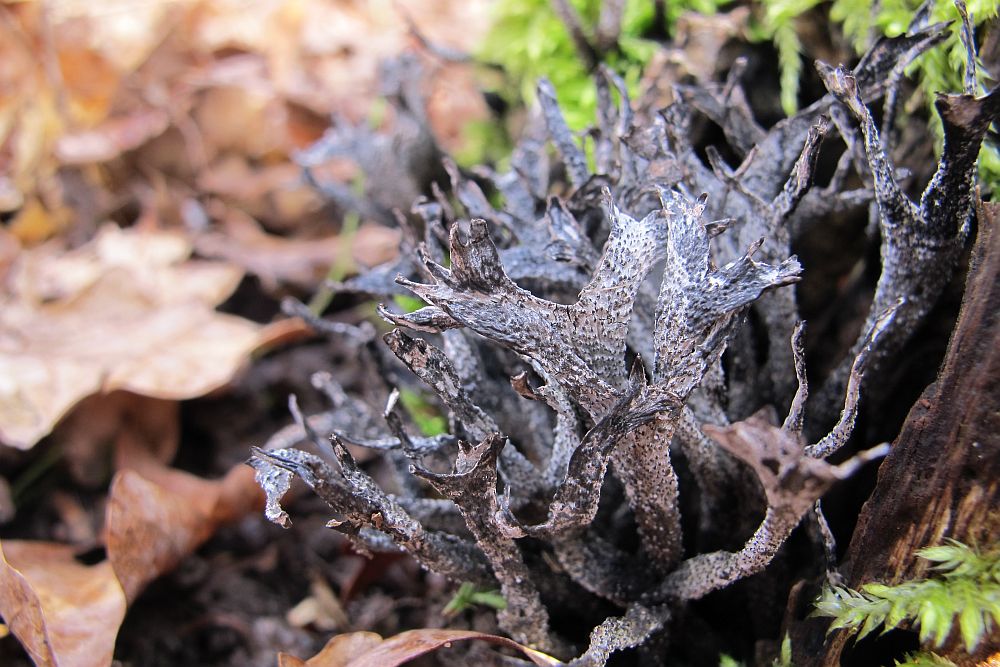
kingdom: Fungi
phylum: Ascomycota
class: Sordariomycetes
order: Xylariales
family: Xylariaceae
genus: Xylaria
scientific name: Xylaria hypoxylon
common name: grenet stødsvamp
